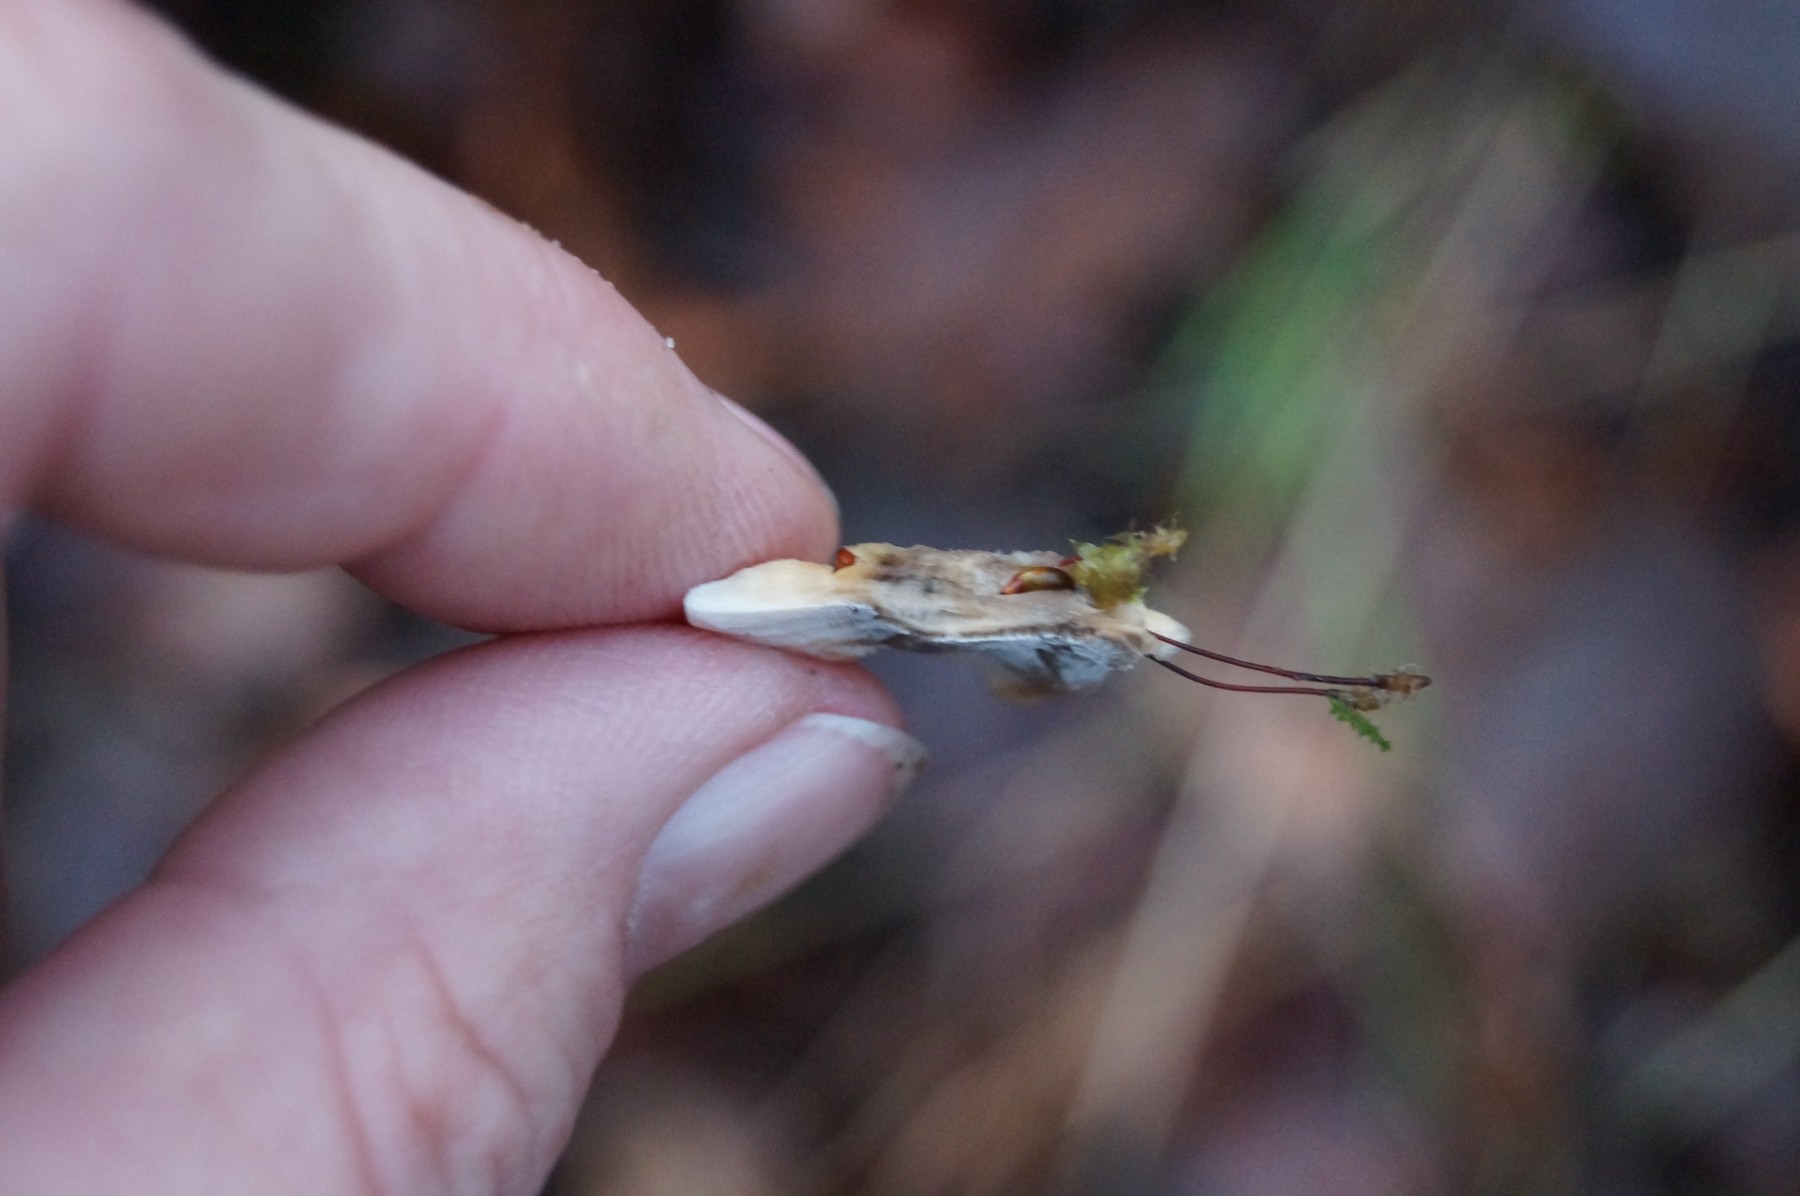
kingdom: Fungi
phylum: Basidiomycota
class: Agaricomycetes
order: Polyporales
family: Phanerochaetaceae
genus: Bjerkandera
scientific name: Bjerkandera adusta
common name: sveden sodporesvamp
